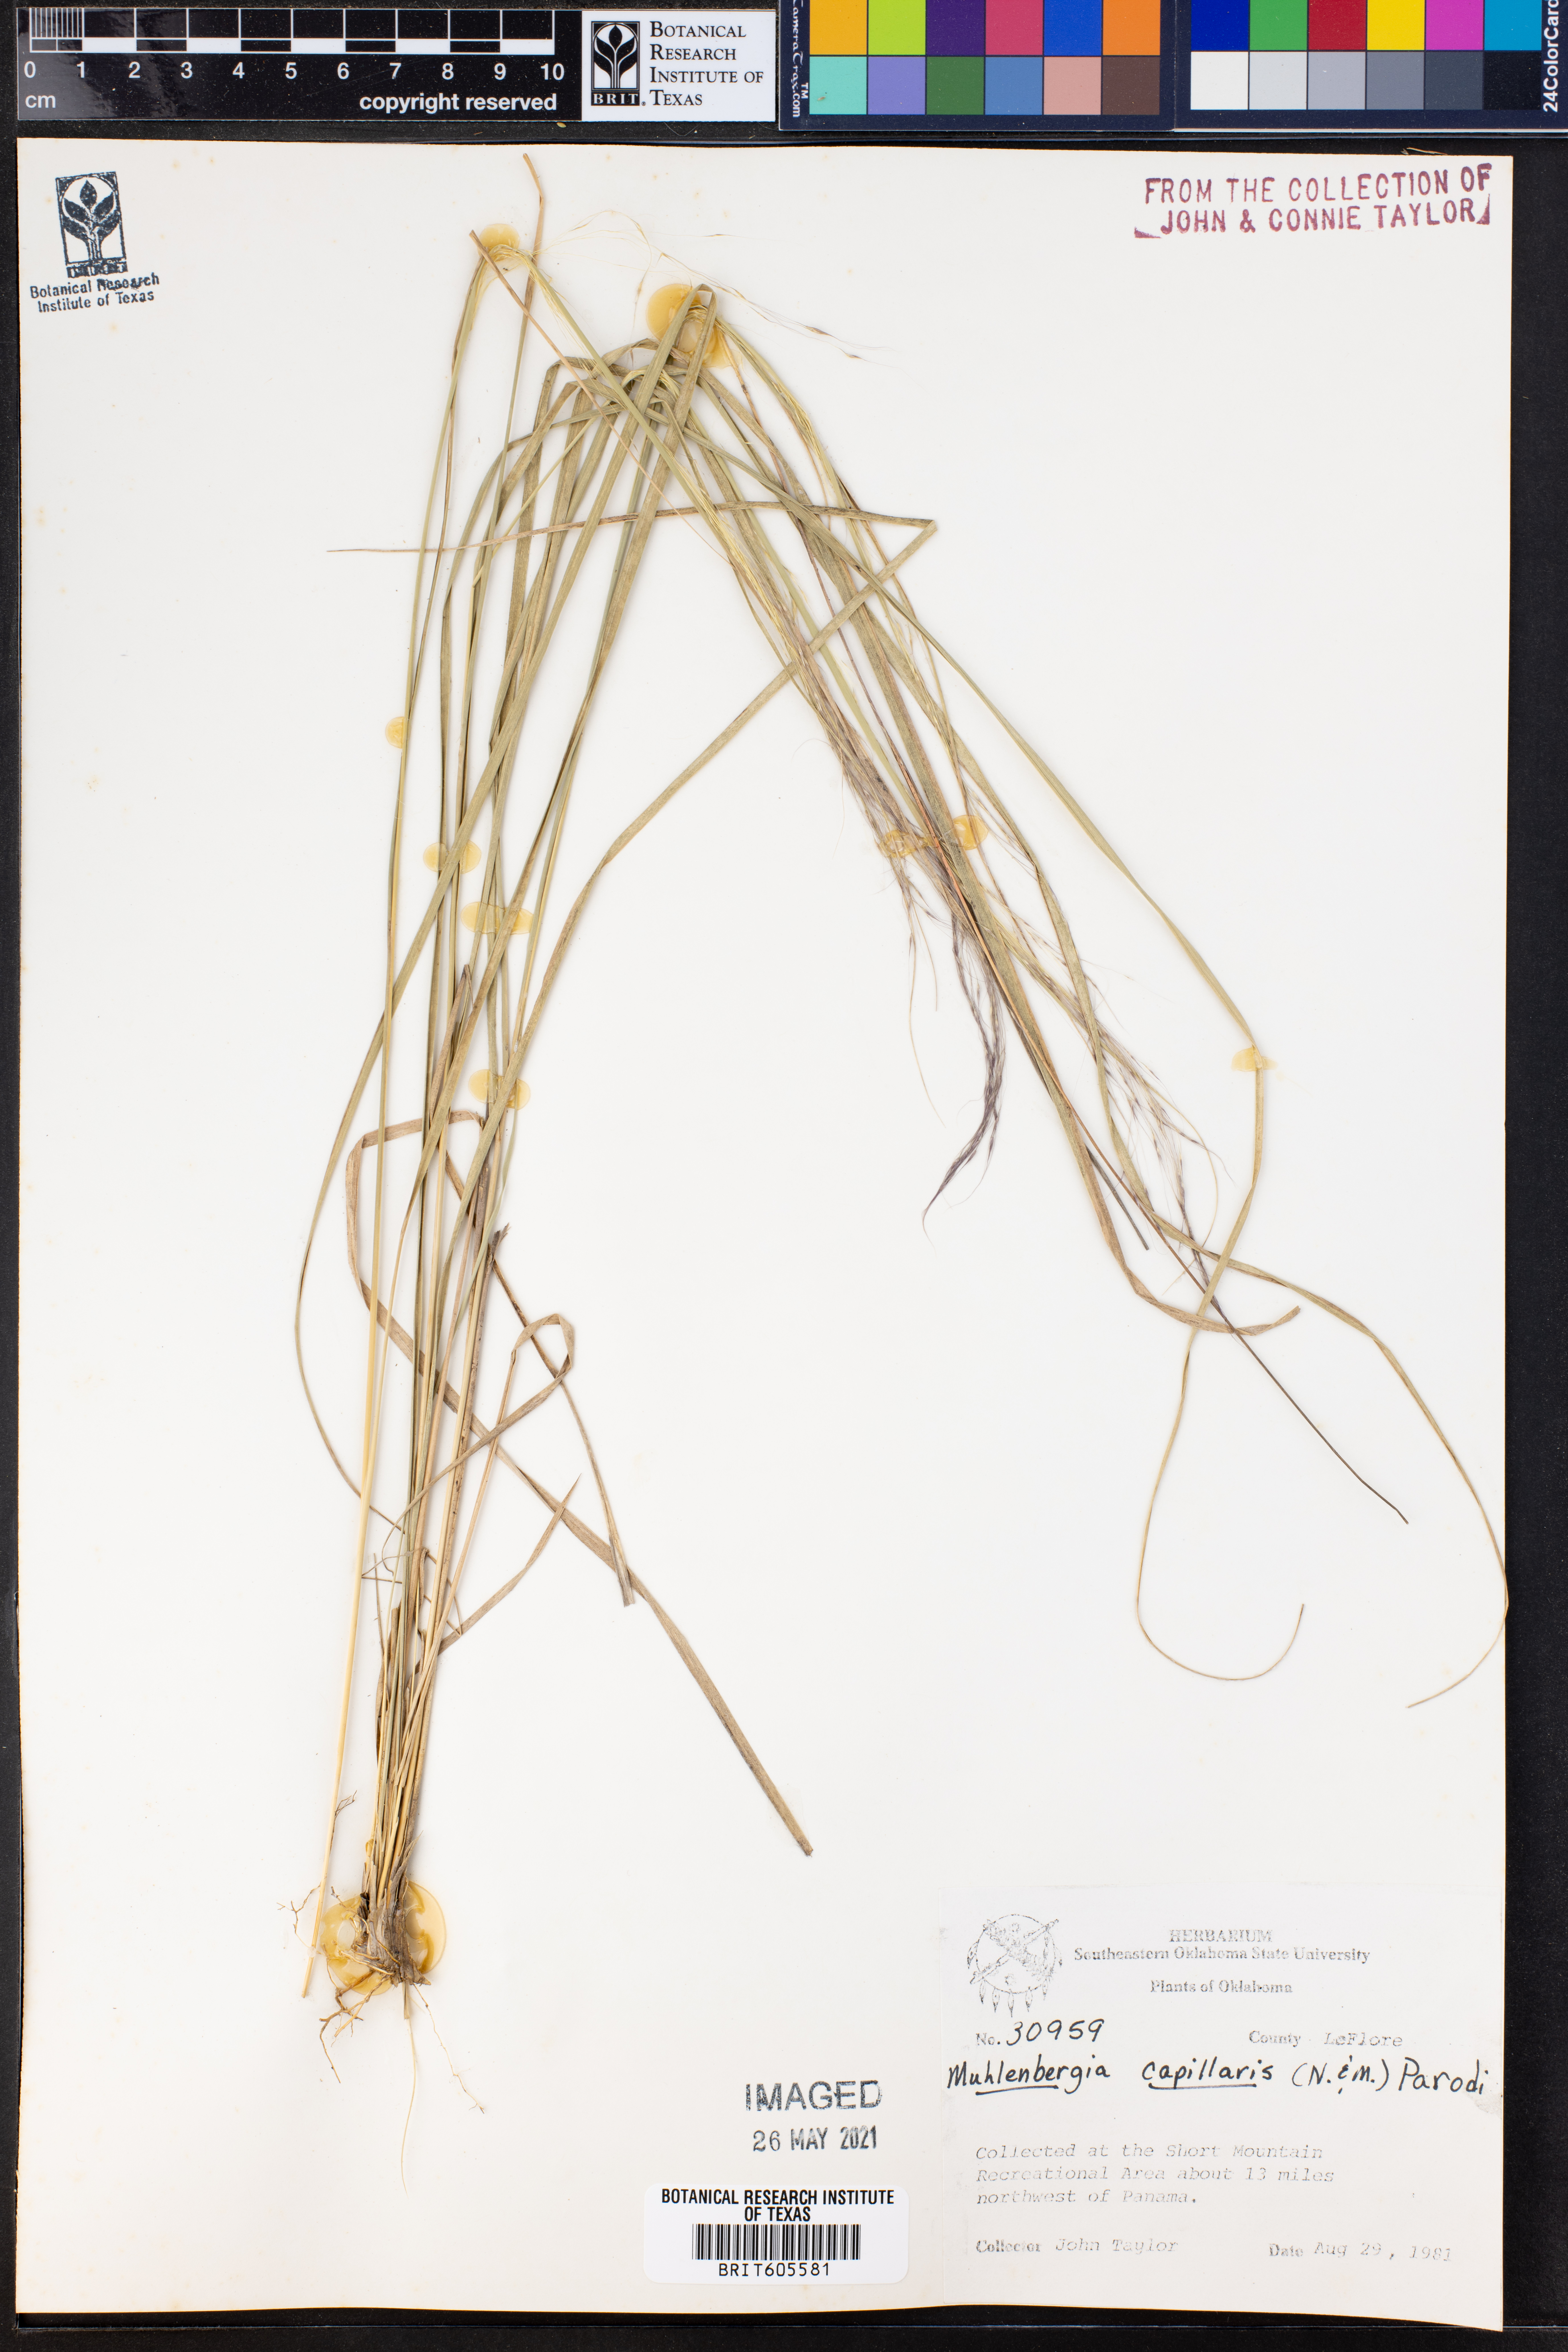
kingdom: Plantae
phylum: Tracheophyta
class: Liliopsida
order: Poales
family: Poaceae
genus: Muhlenbergia
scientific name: Muhlenbergia capillaris
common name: Purple grass
